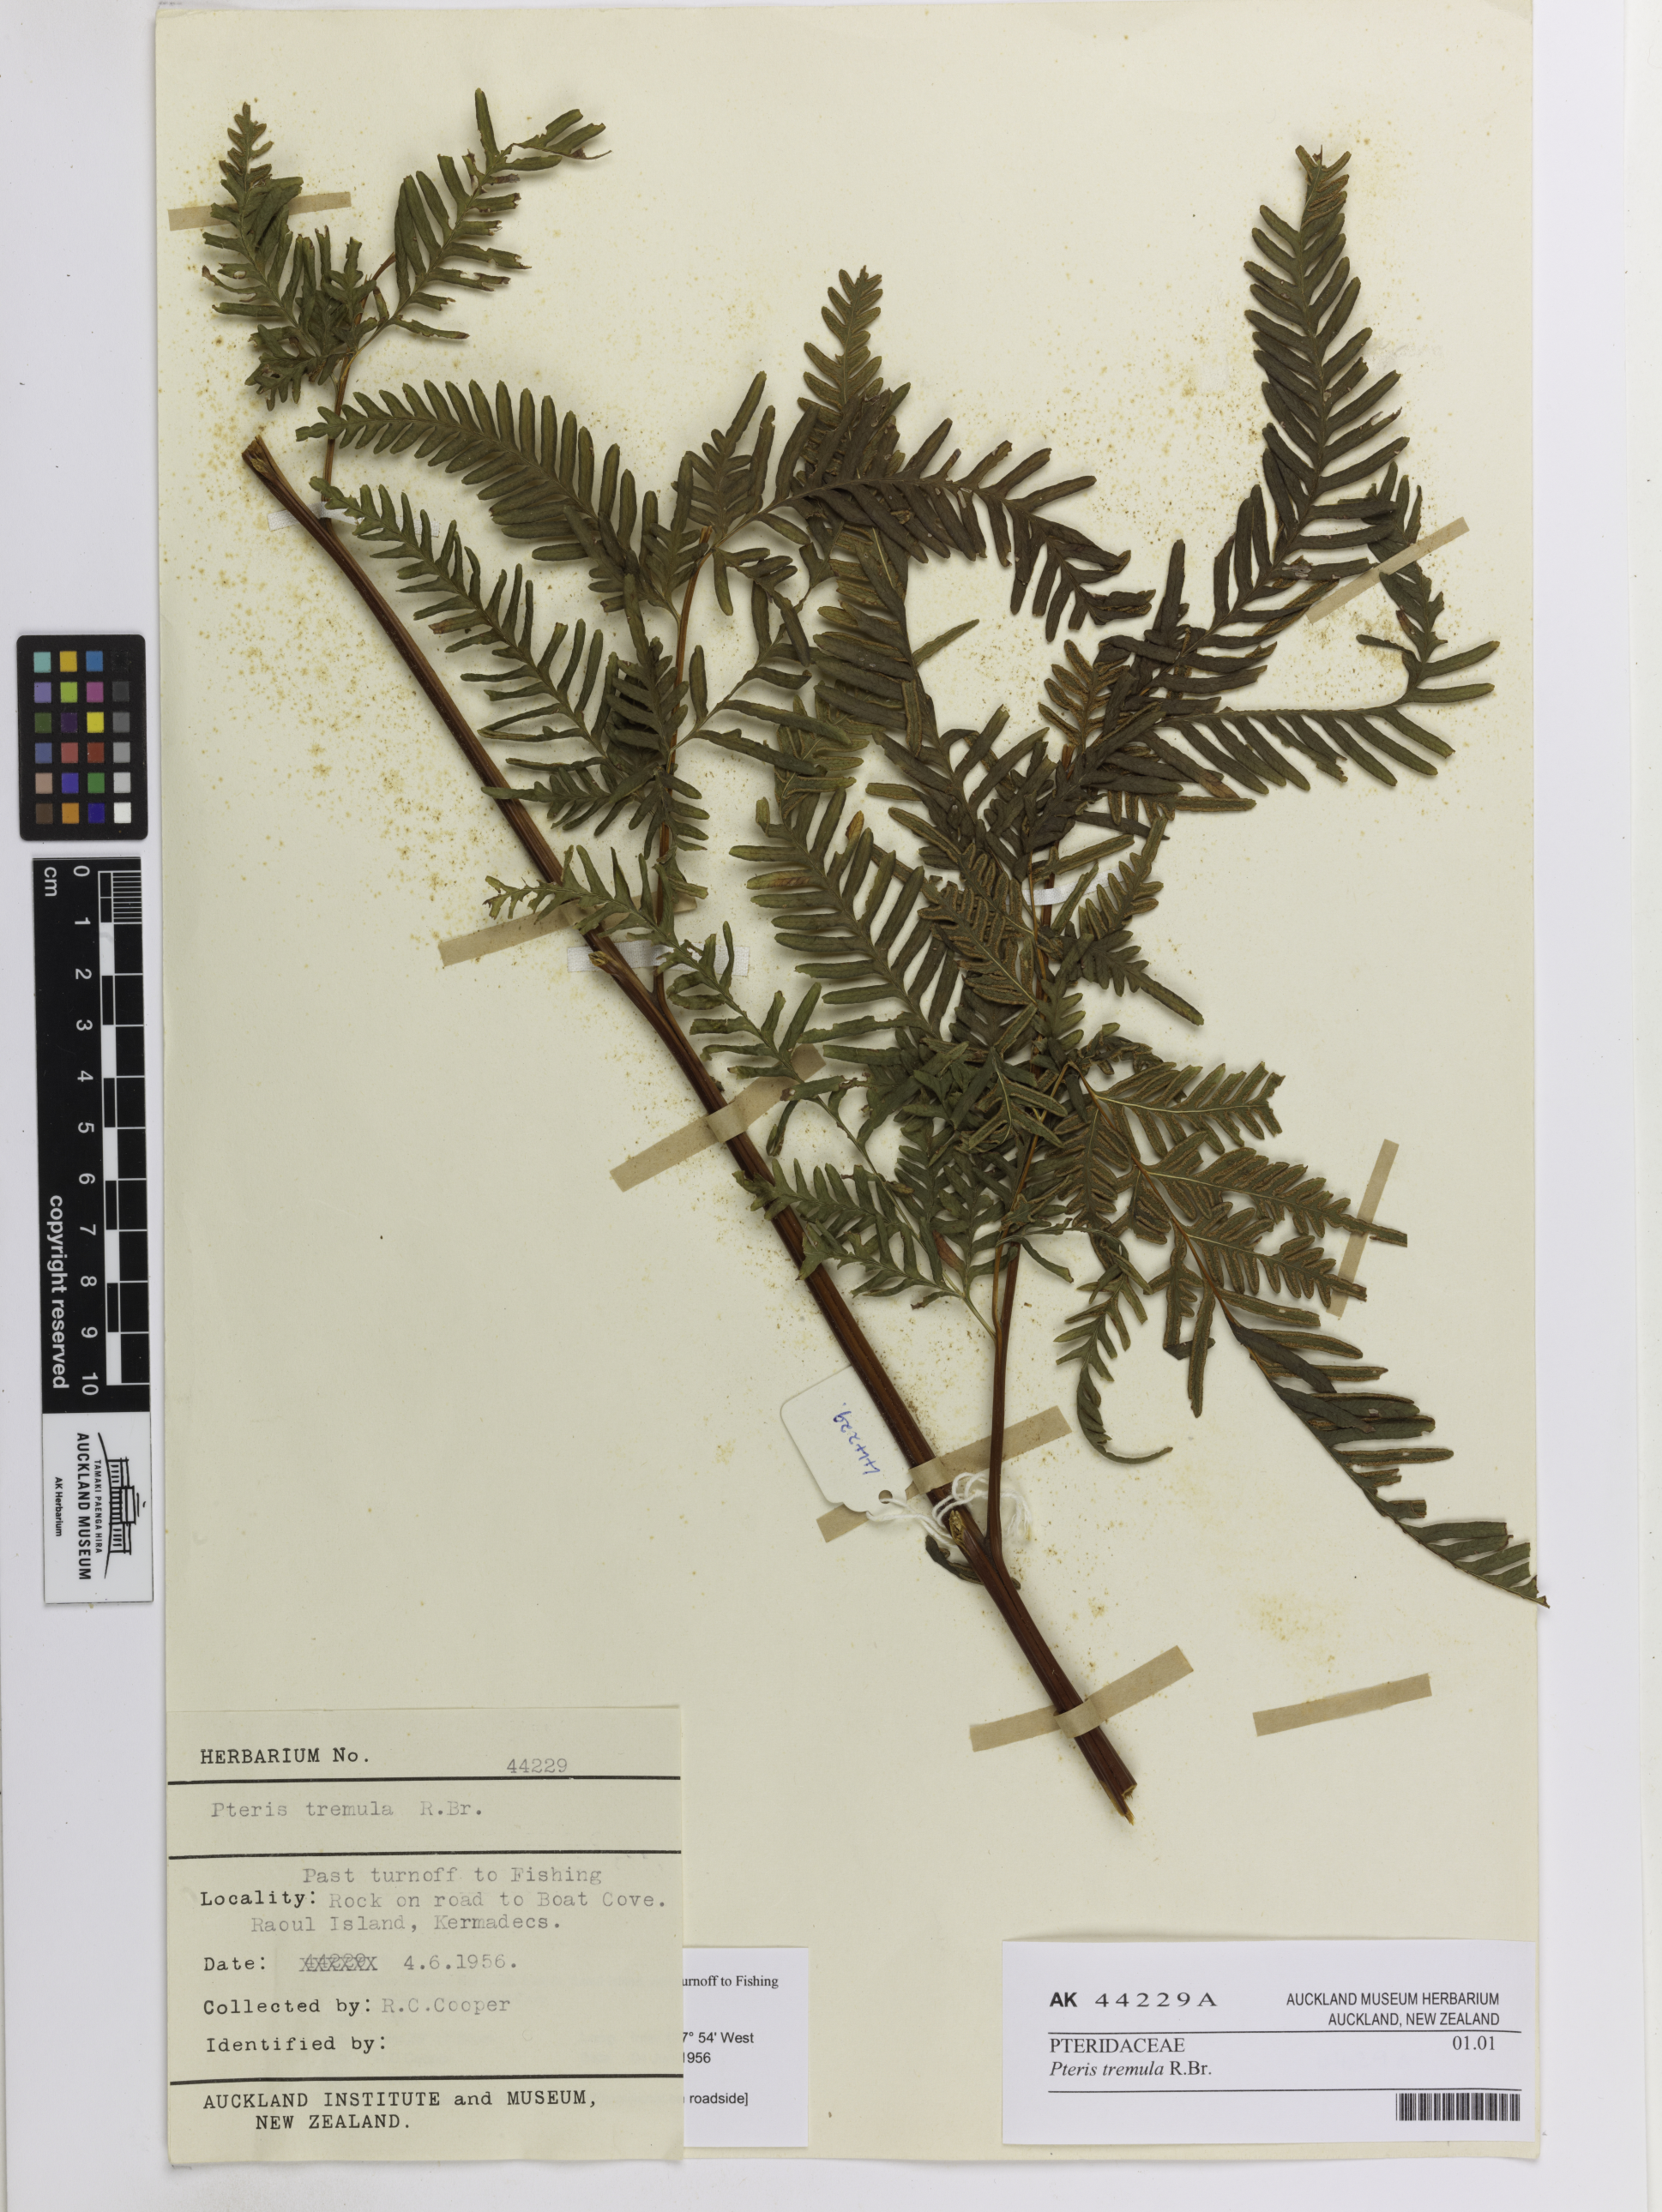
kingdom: Plantae
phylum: Tracheophyta
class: Polypodiopsida
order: Polypodiales
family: Pteridaceae
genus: Pteris
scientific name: Pteris tremula
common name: Australian brake
